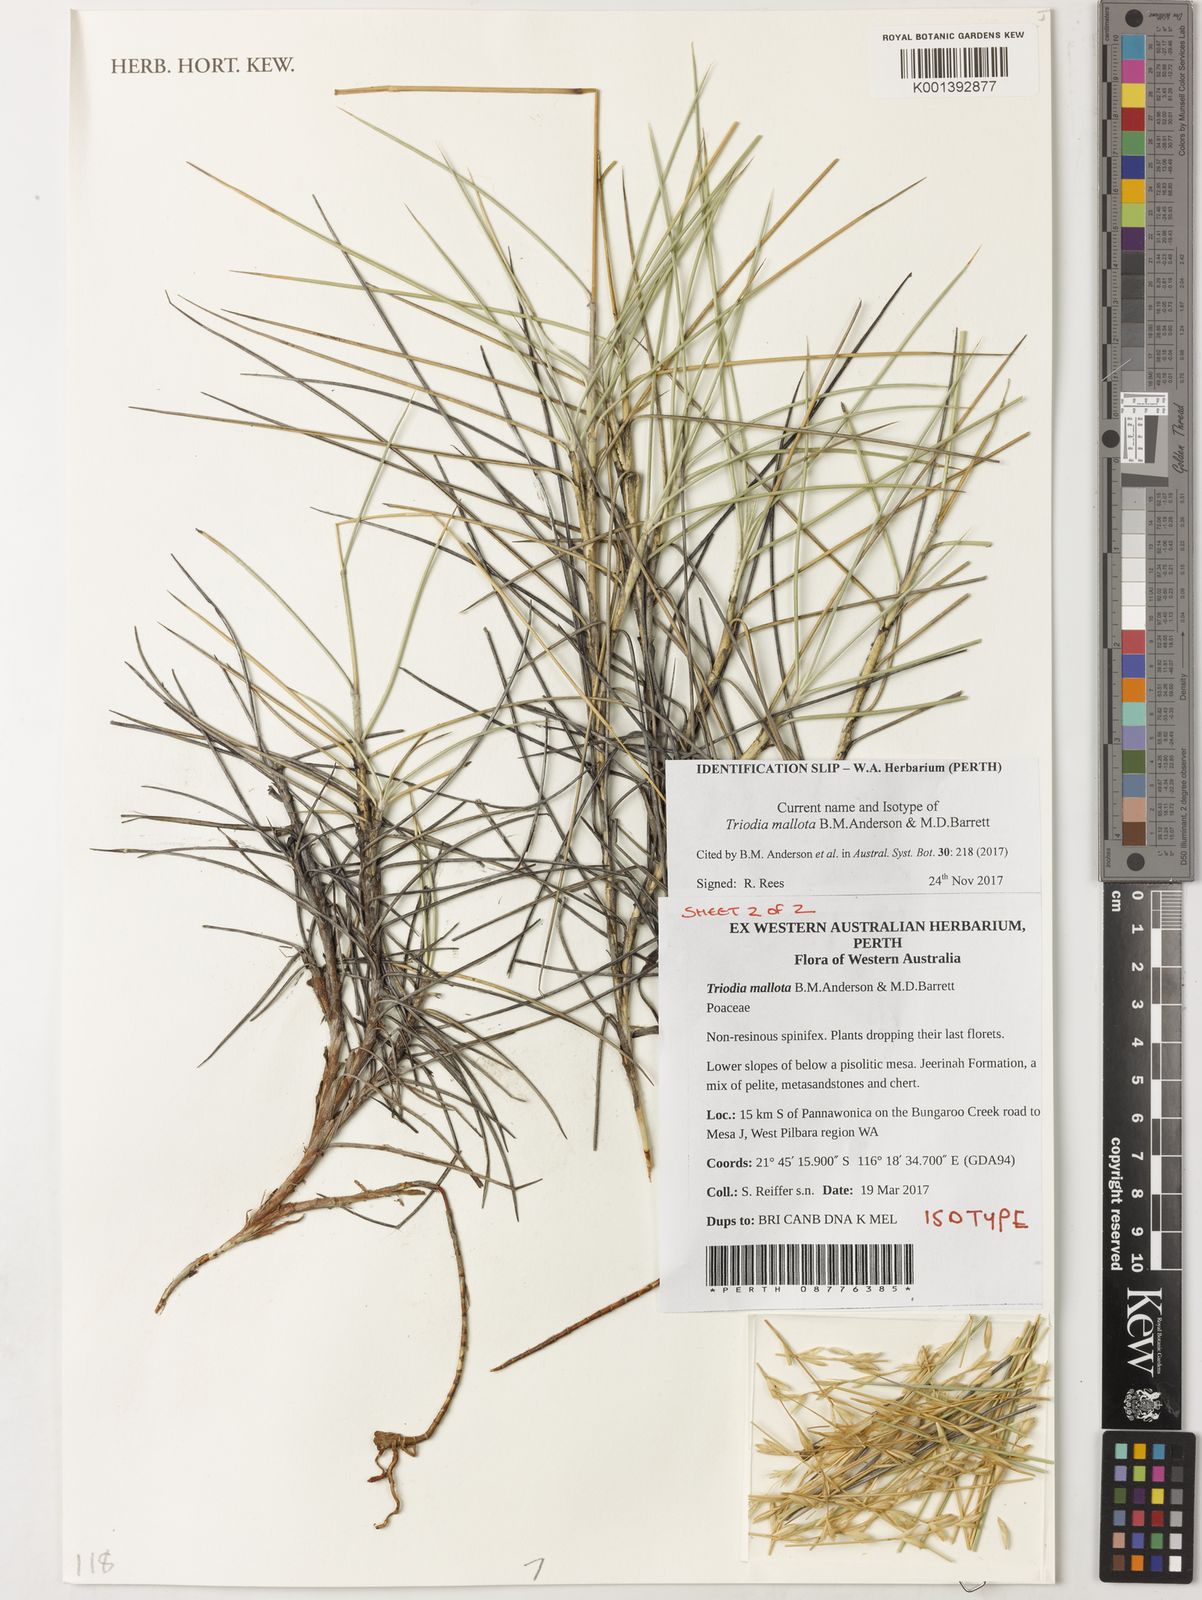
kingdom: Plantae
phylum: Tracheophyta
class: Liliopsida
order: Poales
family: Poaceae
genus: Triodia
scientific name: Triodia mallota
